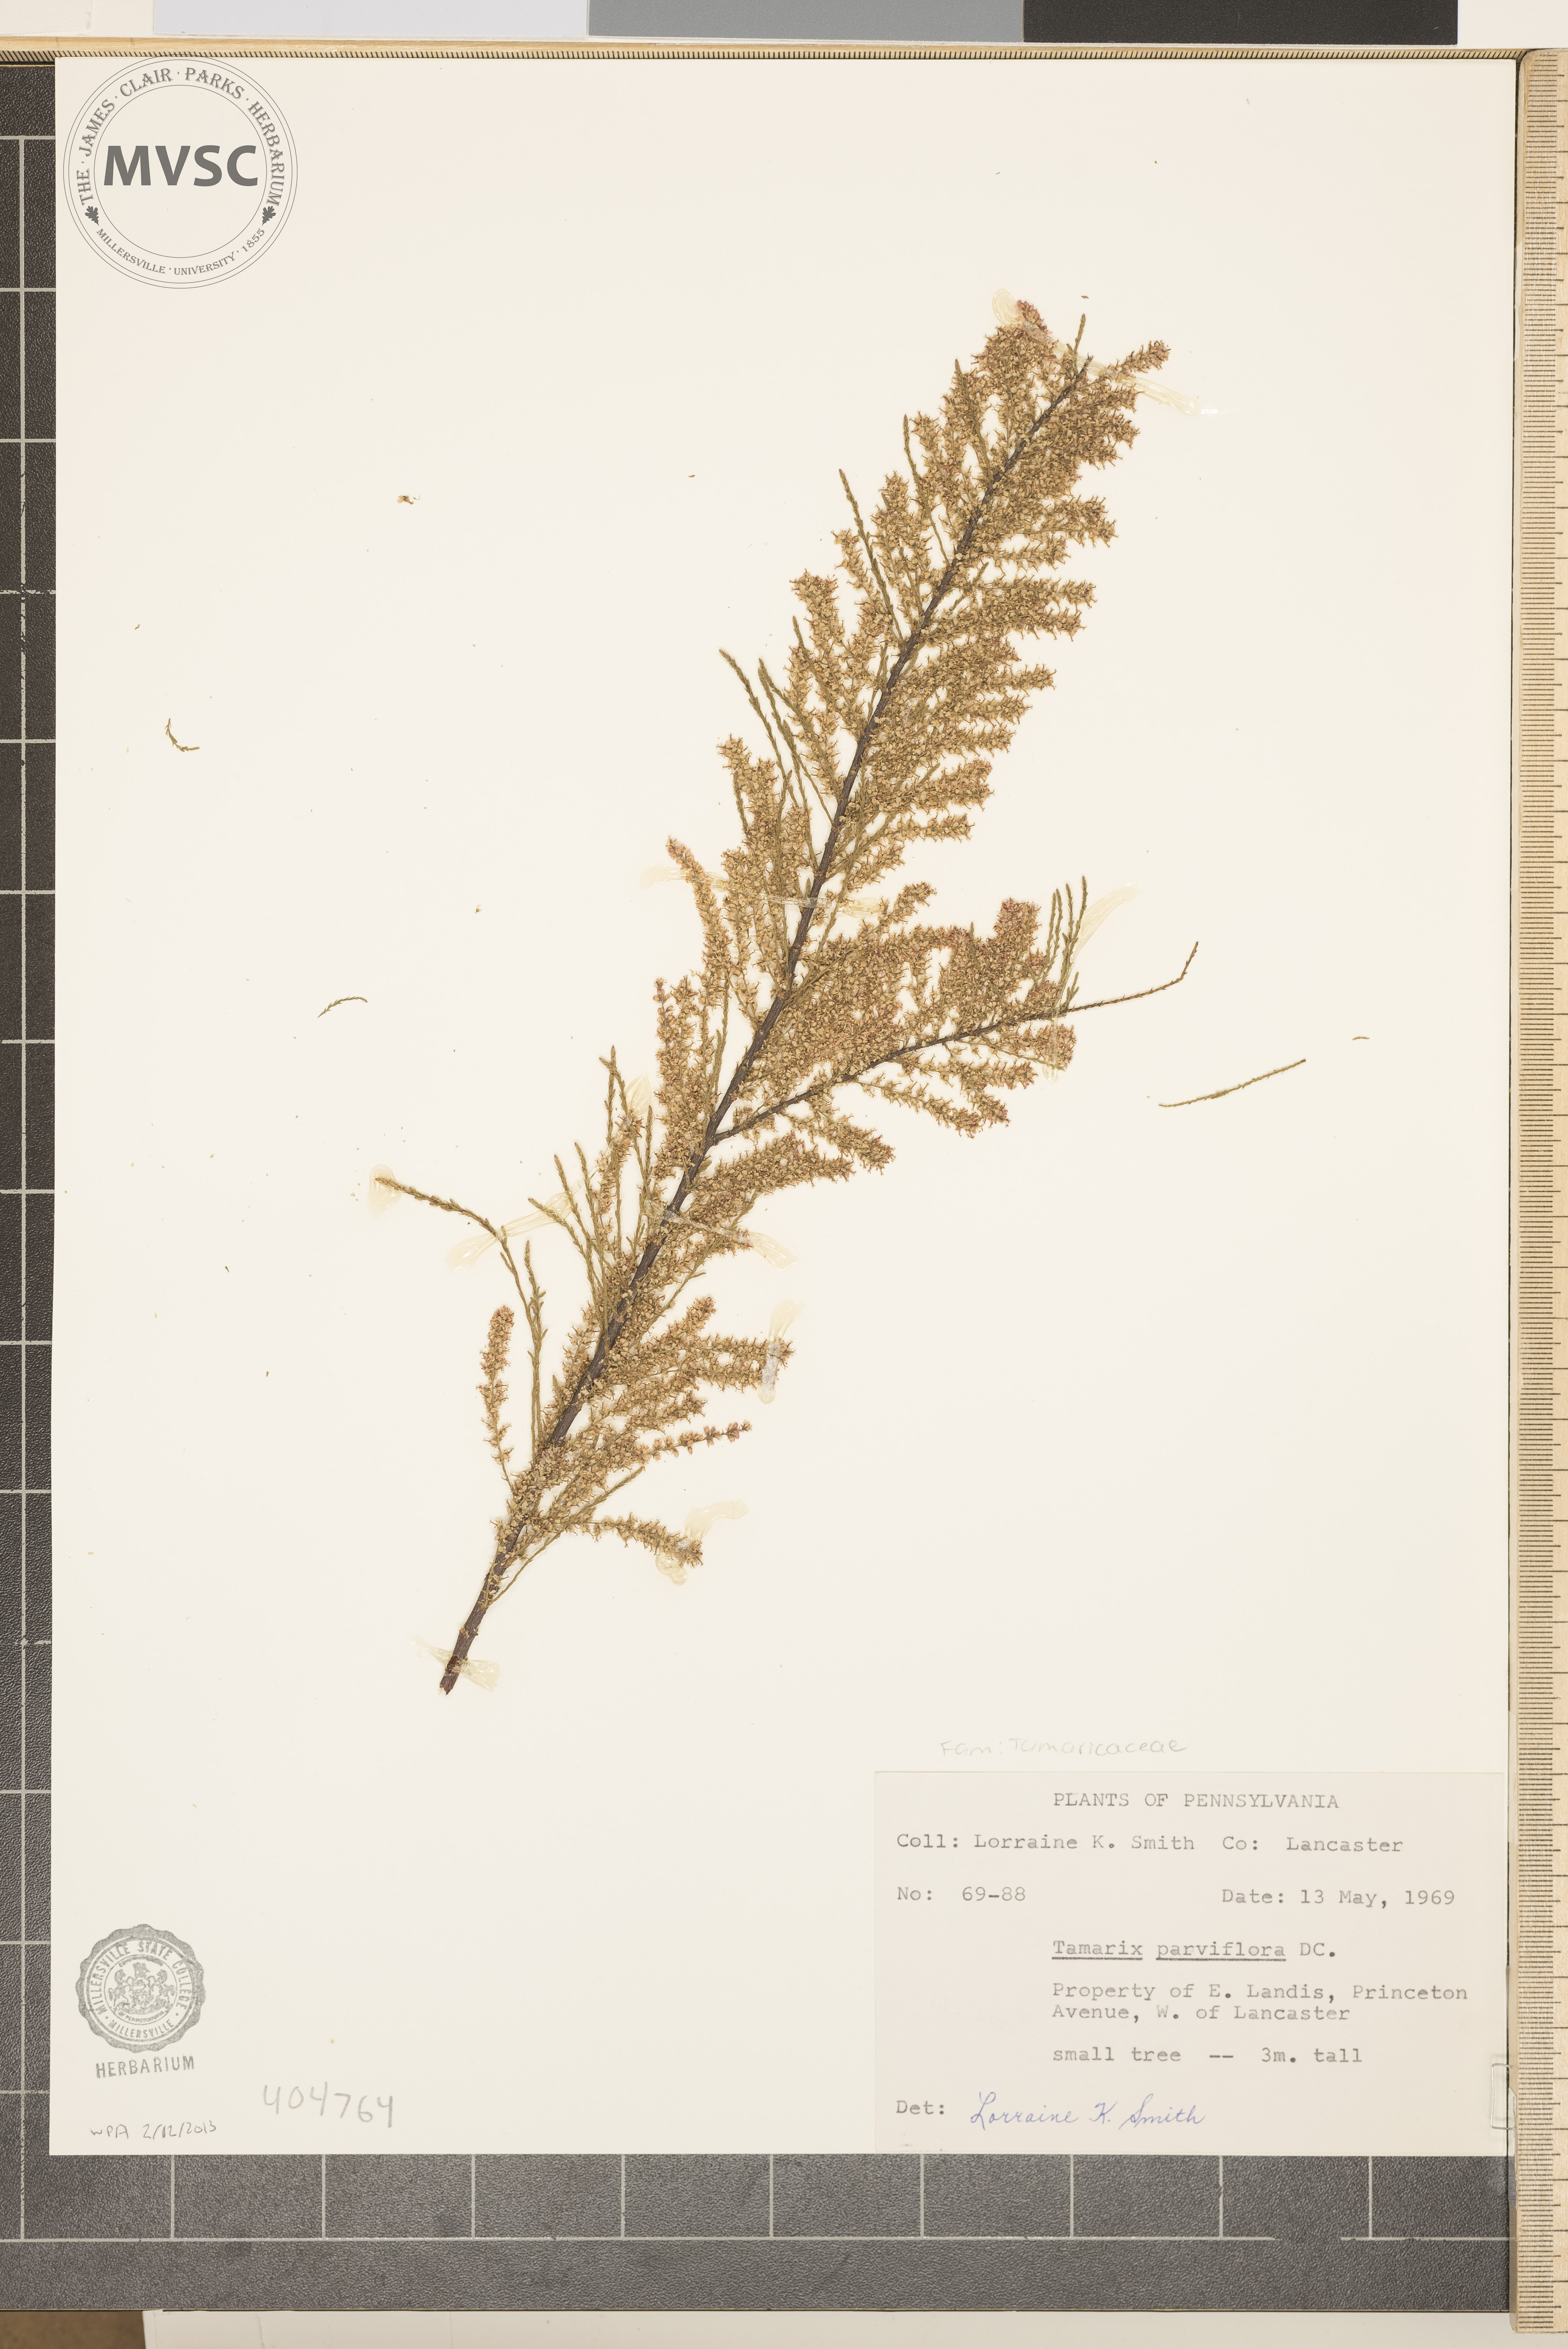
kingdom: Plantae
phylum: Tracheophyta
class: Magnoliopsida
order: Caryophyllales
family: Tamaricaceae
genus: Tamarix
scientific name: Tamarix parviflora
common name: Smallflower tamarisk
